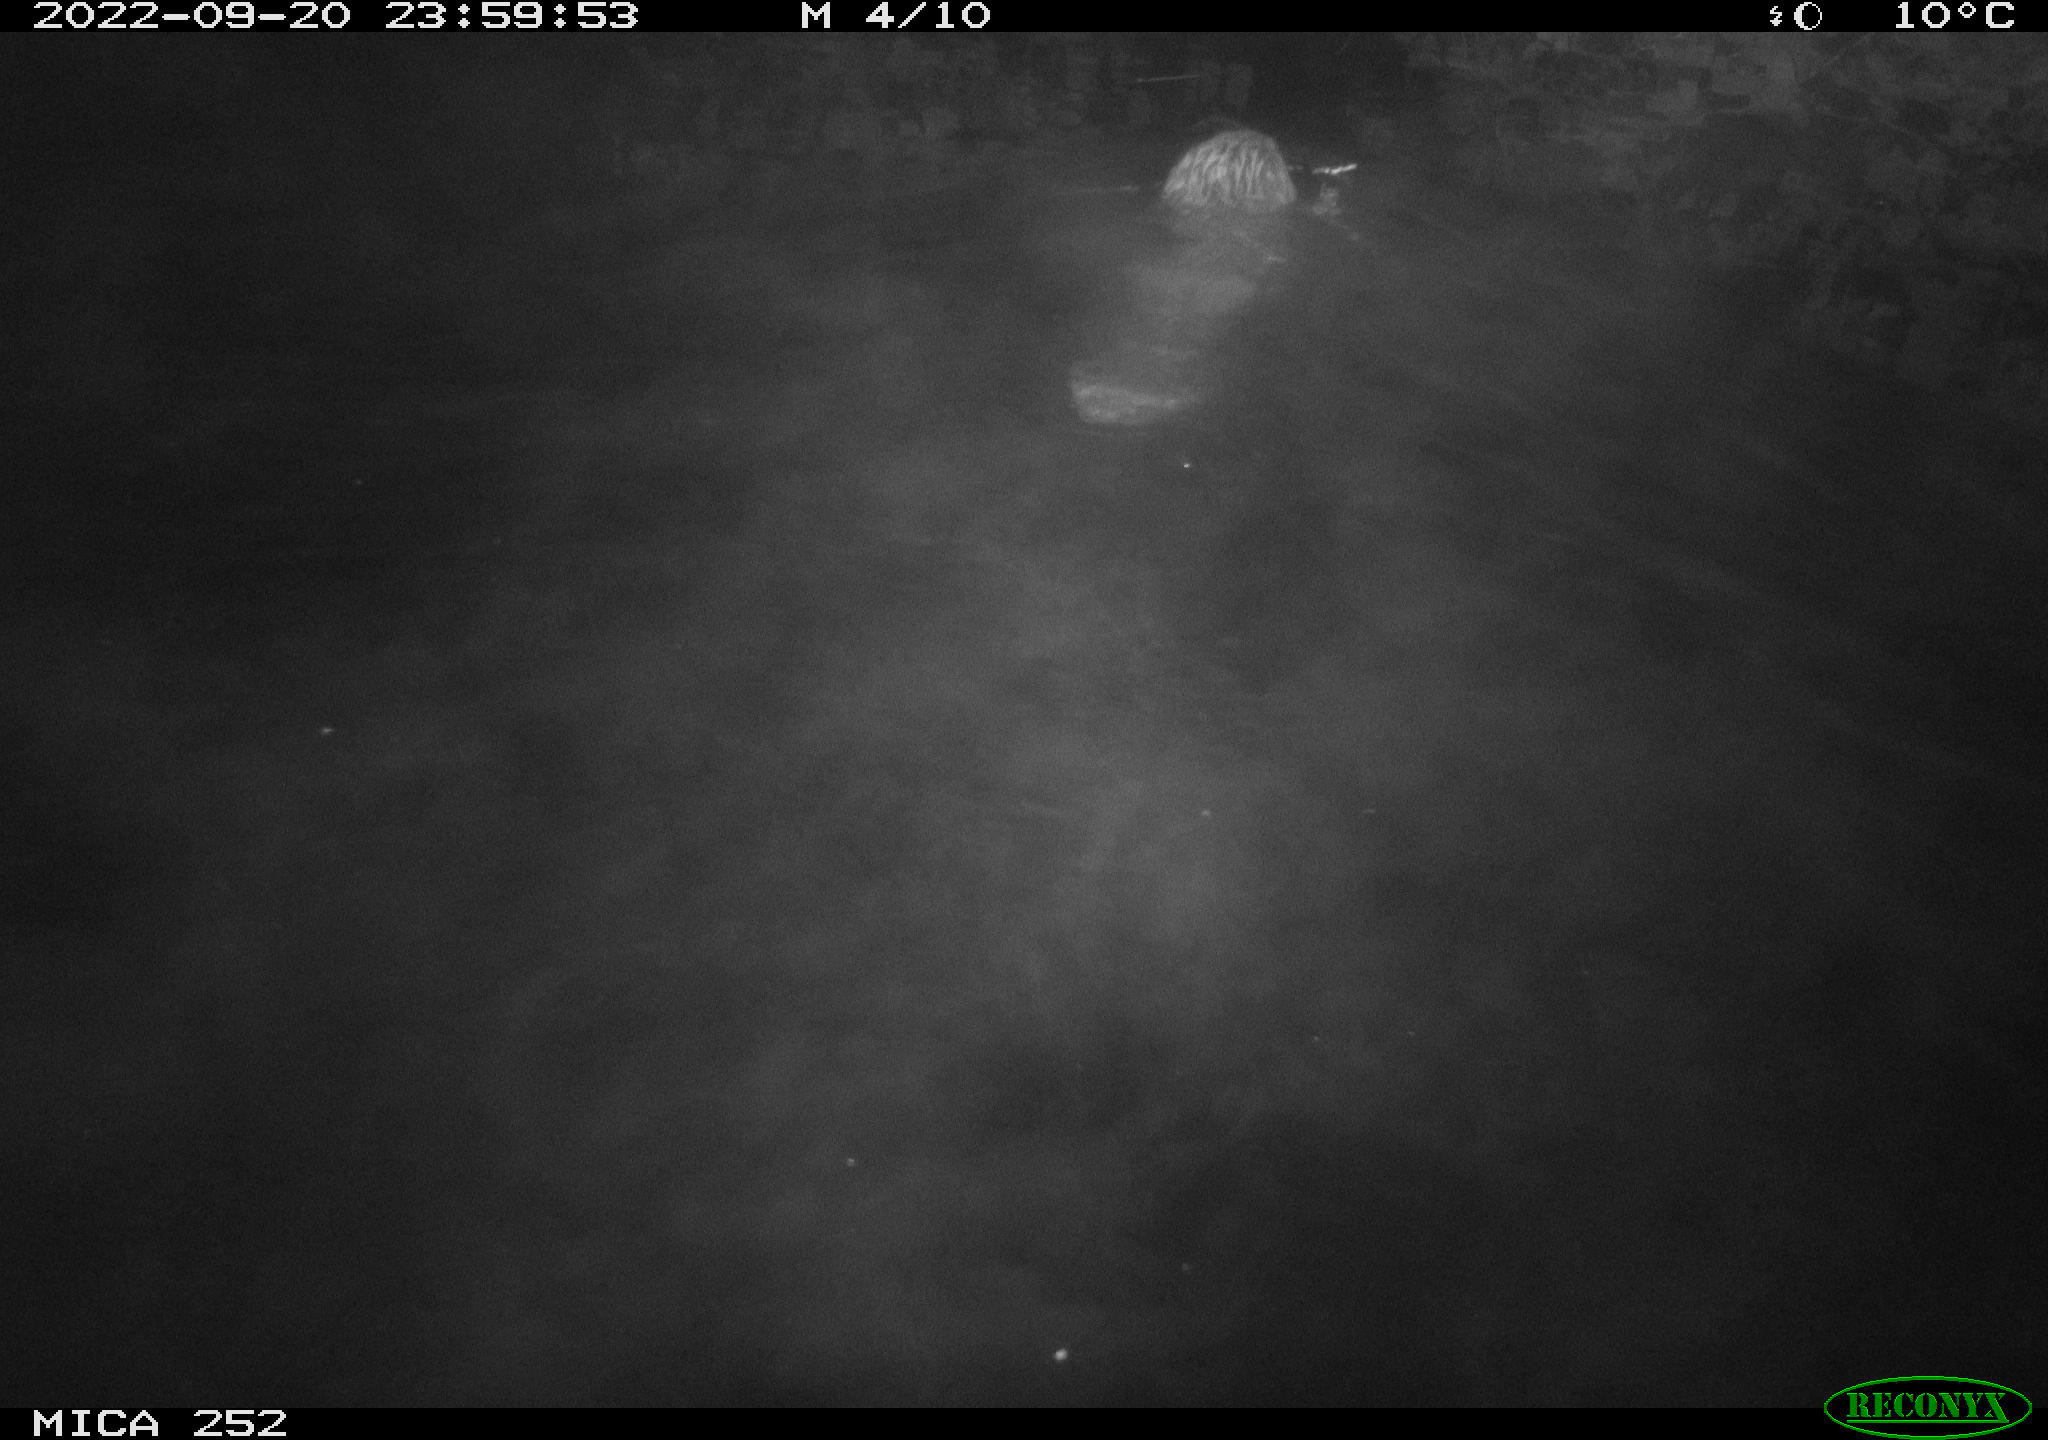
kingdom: Animalia
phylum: Chordata
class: Mammalia
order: Rodentia
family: Castoridae
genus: Castor
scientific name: Castor fiber
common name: Eurasian beaver
